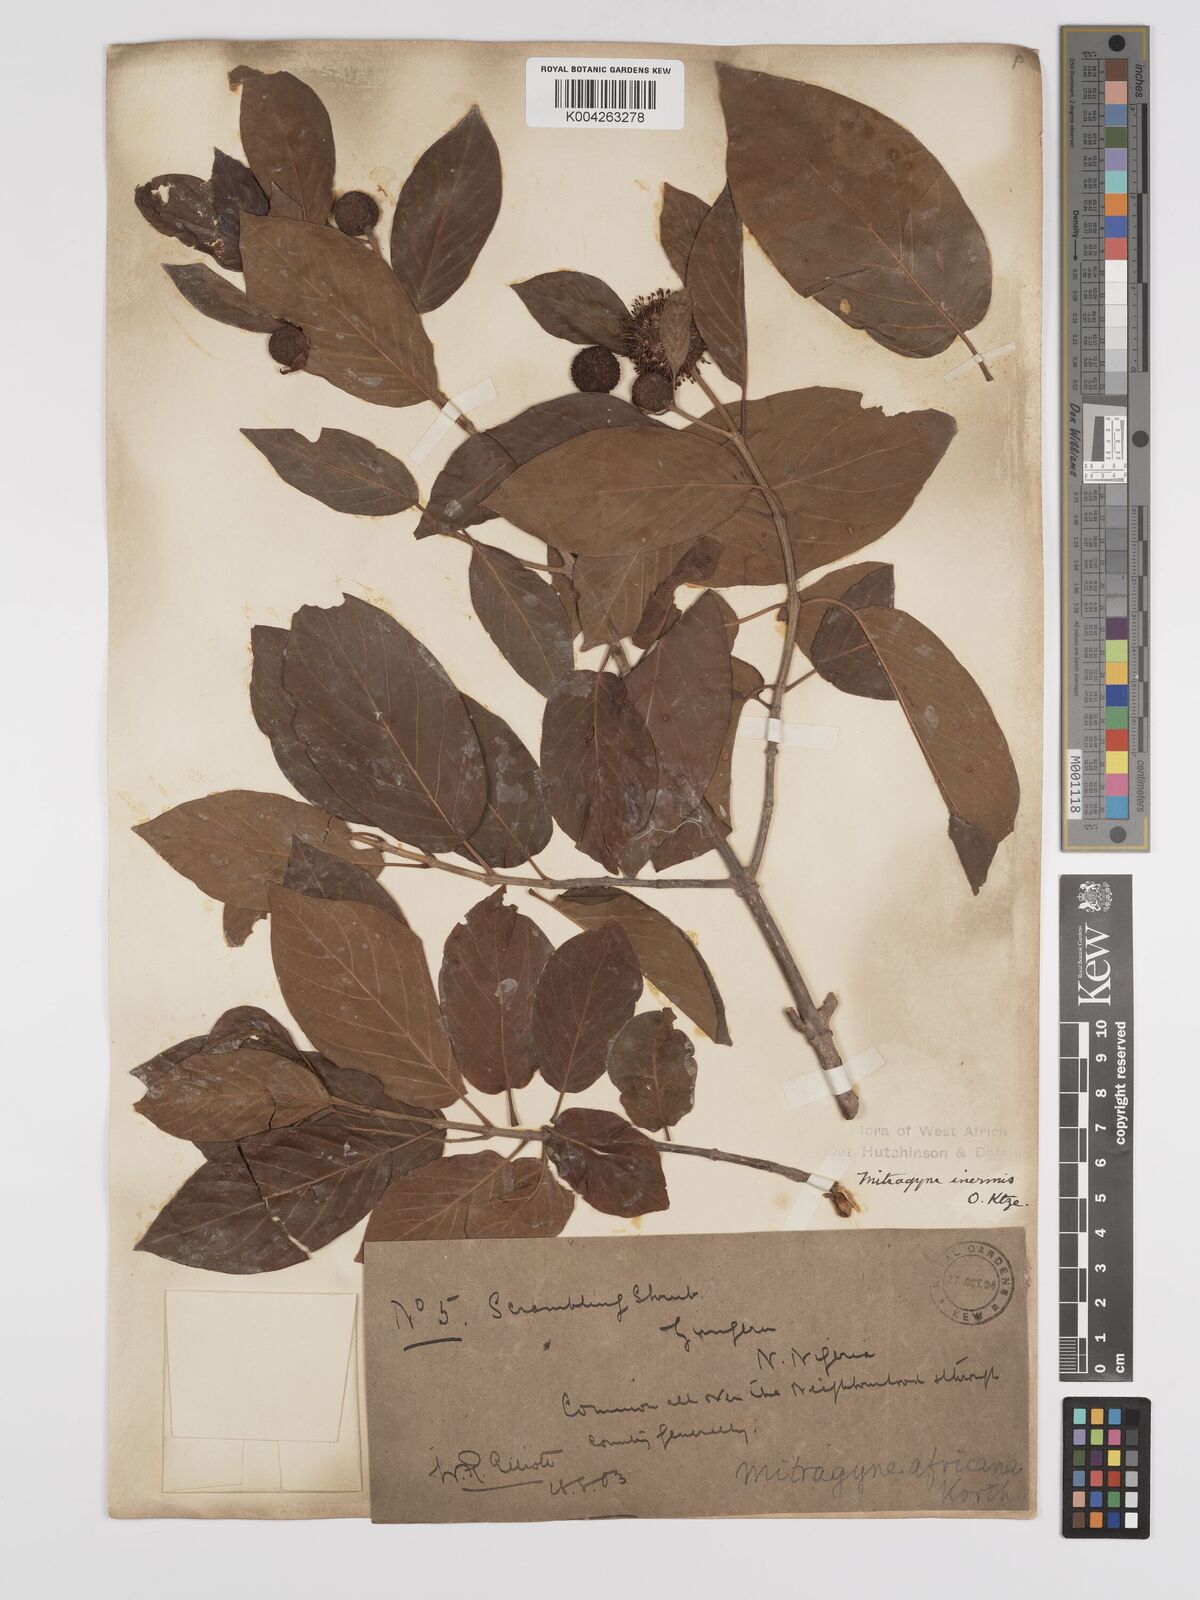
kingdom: Plantae
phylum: Tracheophyta
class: Magnoliopsida
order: Gentianales
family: Rubiaceae
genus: Mitragyna
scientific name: Mitragyna inermis
